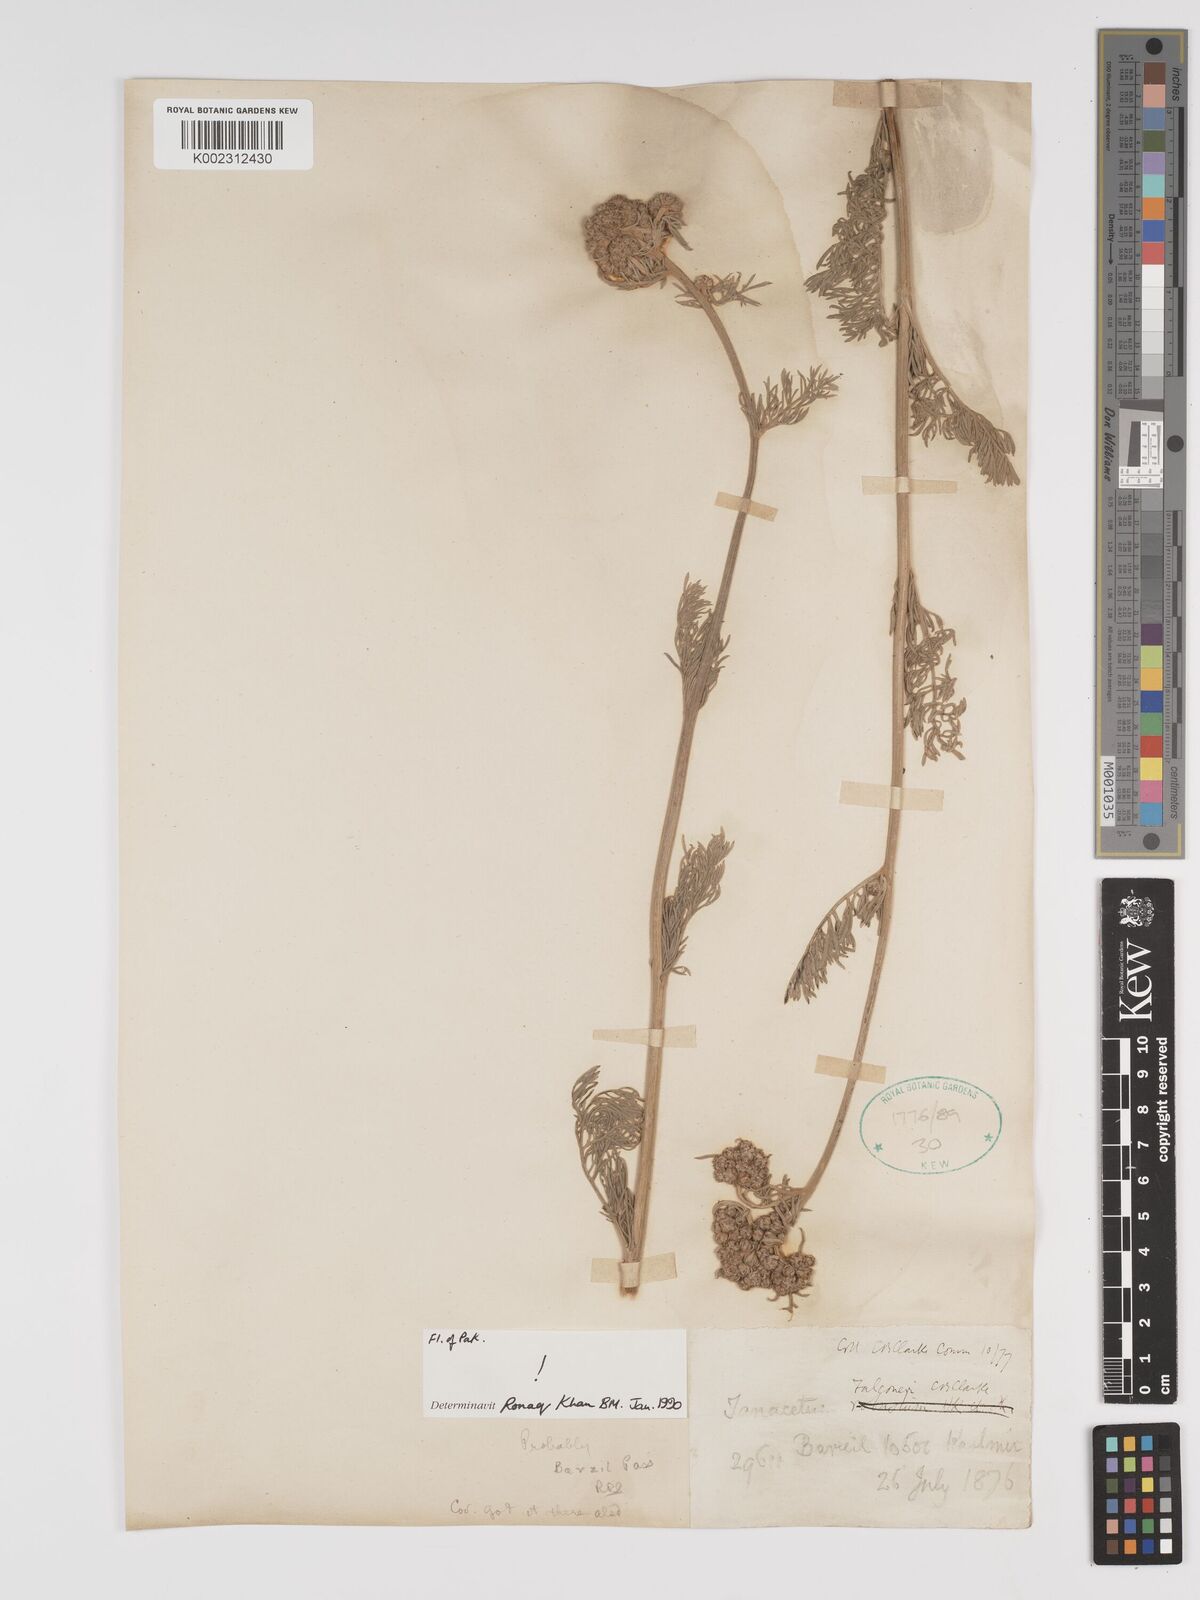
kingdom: Plantae
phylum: Tracheophyta
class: Magnoliopsida
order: Asterales
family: Asteraceae
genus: Tanacetum
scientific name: Tanacetum falconeri
